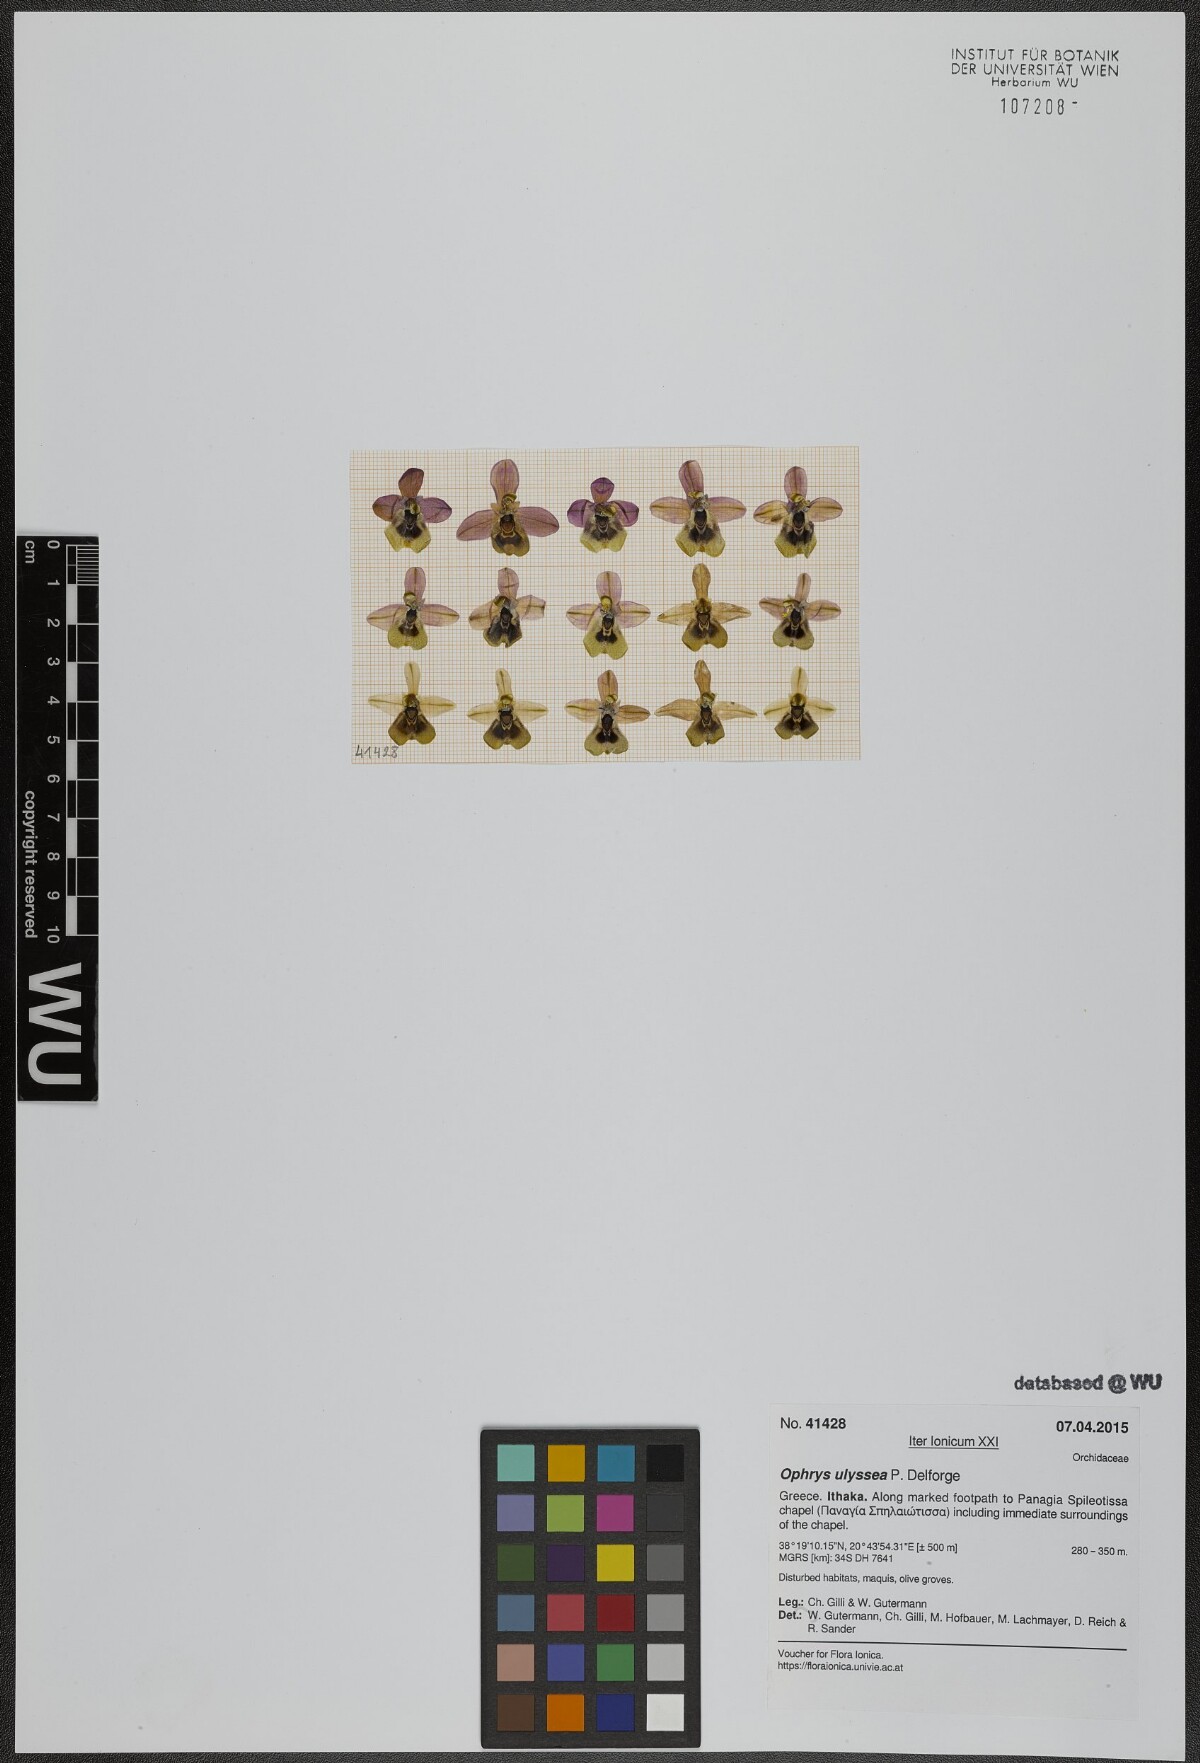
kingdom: Plantae
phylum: Tracheophyta
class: Liliopsida
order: Asparagales
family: Orchidaceae
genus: Ophrys
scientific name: Ophrys tenthredinifera
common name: Sawfly orchid
